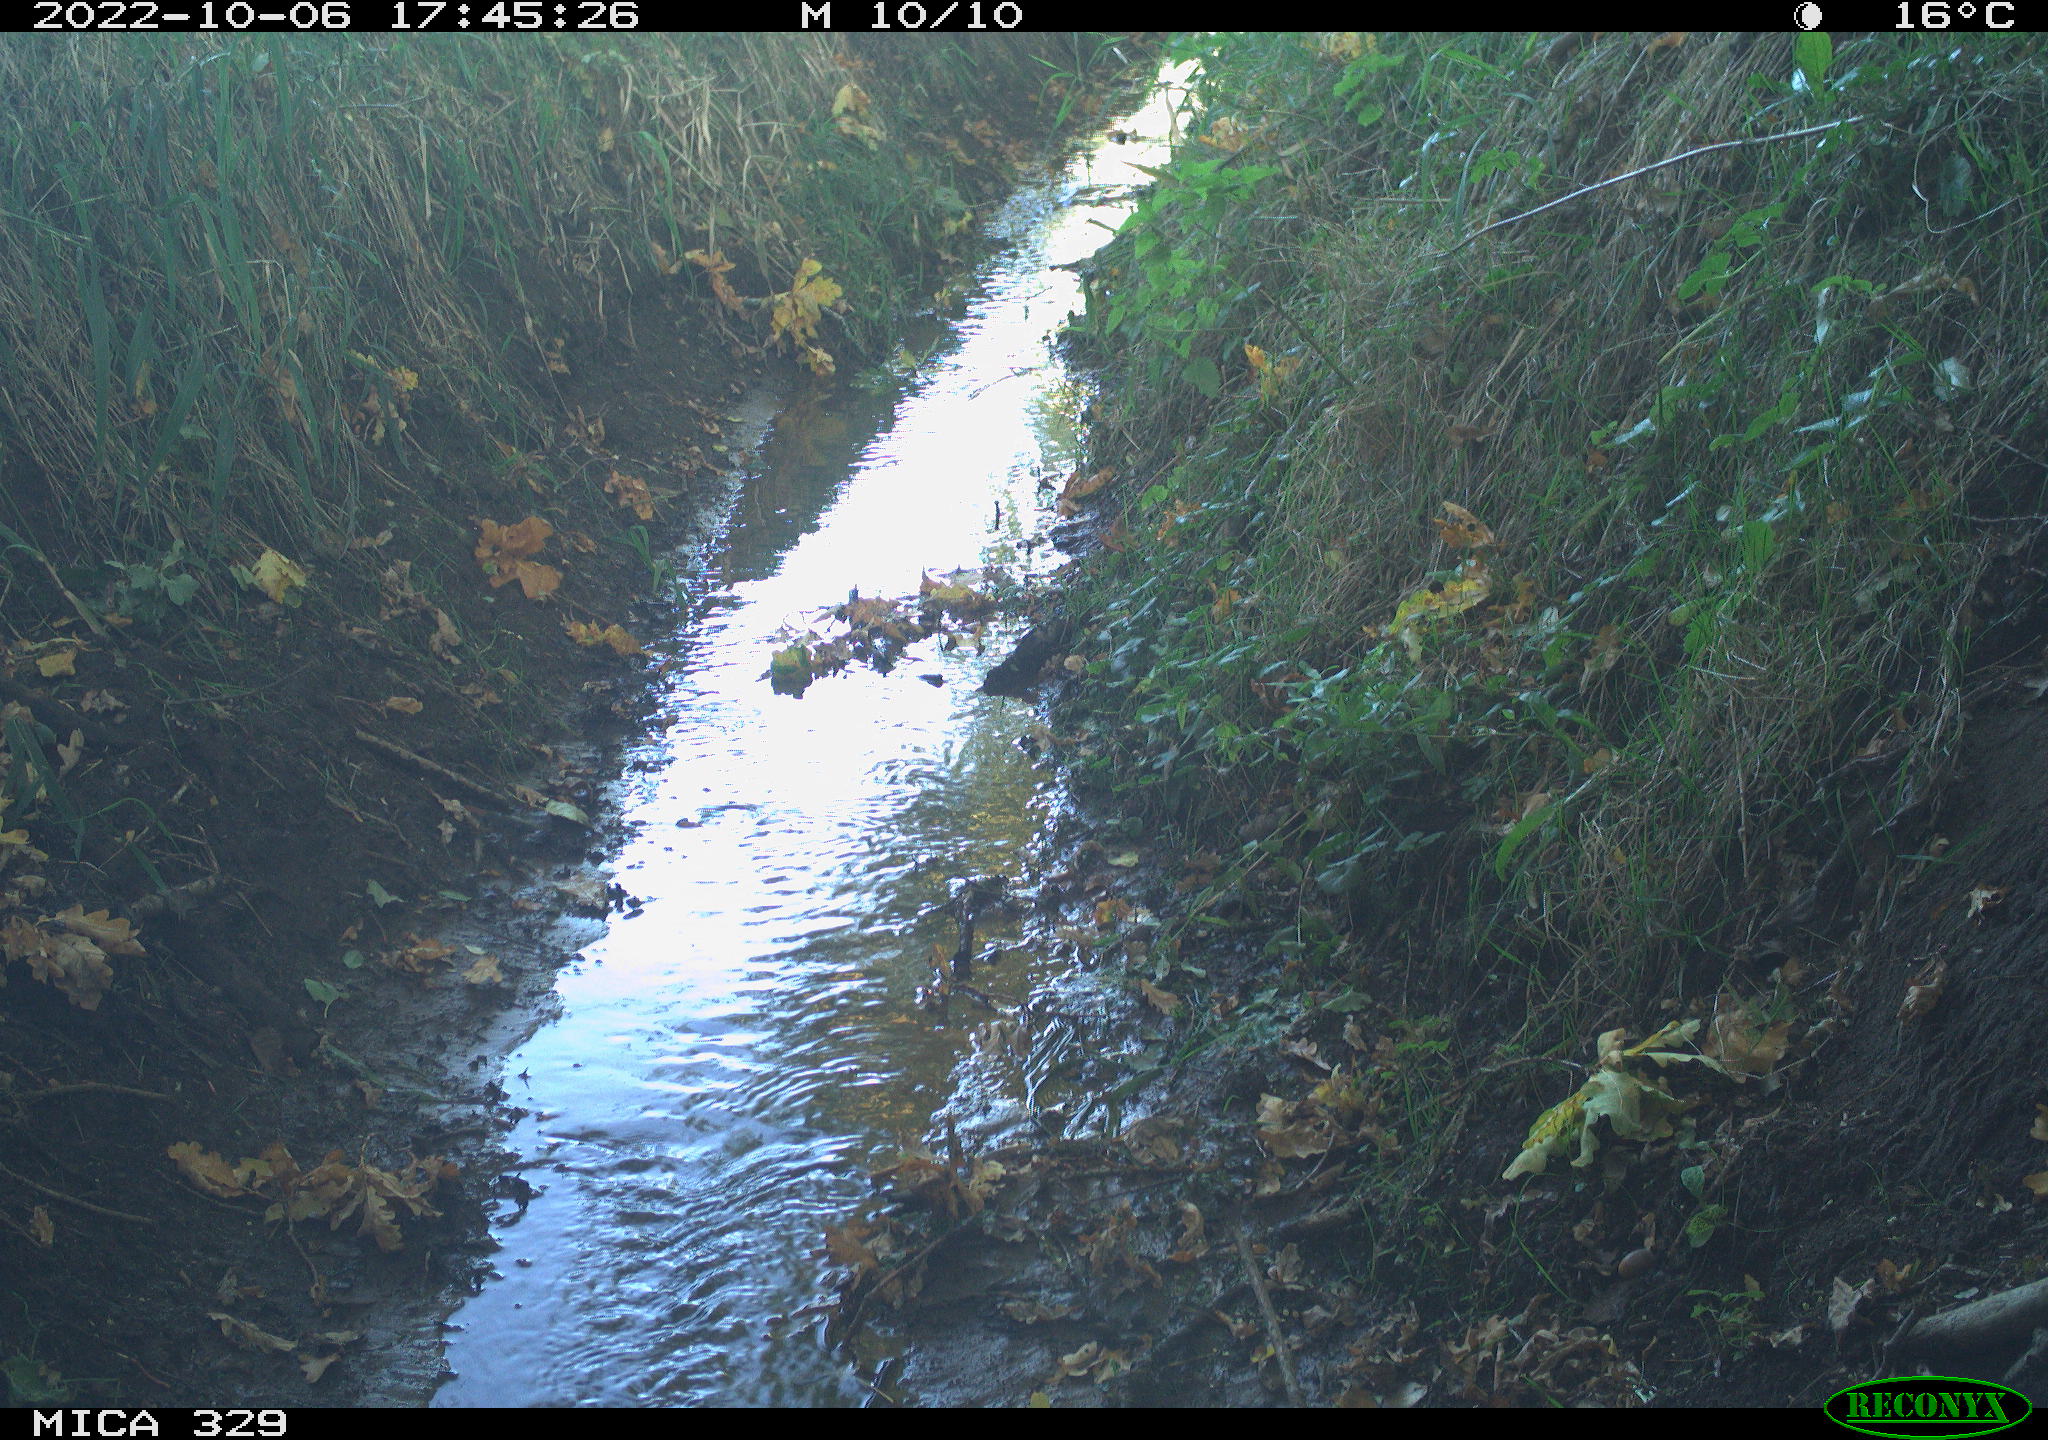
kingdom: Animalia
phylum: Chordata
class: Aves
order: Galliformes
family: Phasianidae
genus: Phasianus
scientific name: Phasianus colchicus
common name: Common pheasant
